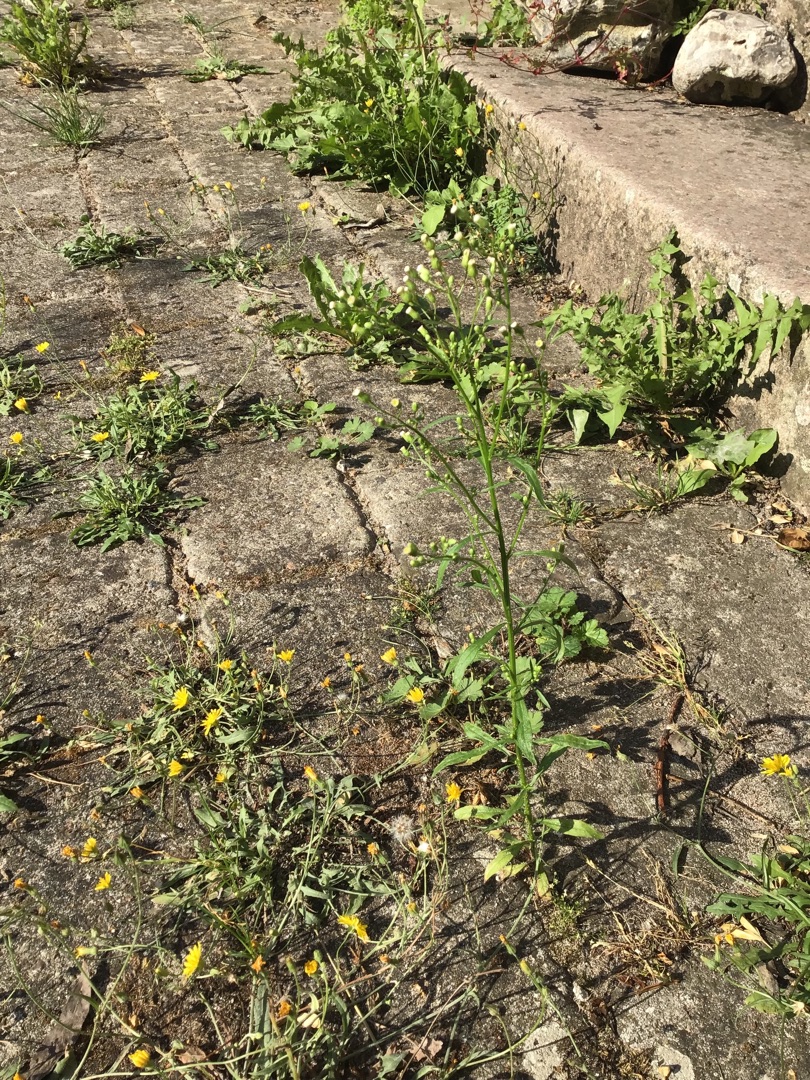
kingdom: Plantae
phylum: Tracheophyta
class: Magnoliopsida
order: Asterales
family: Asteraceae
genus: Erigeron
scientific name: Erigeron canadensis
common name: Kanadisk bakkestjerne
